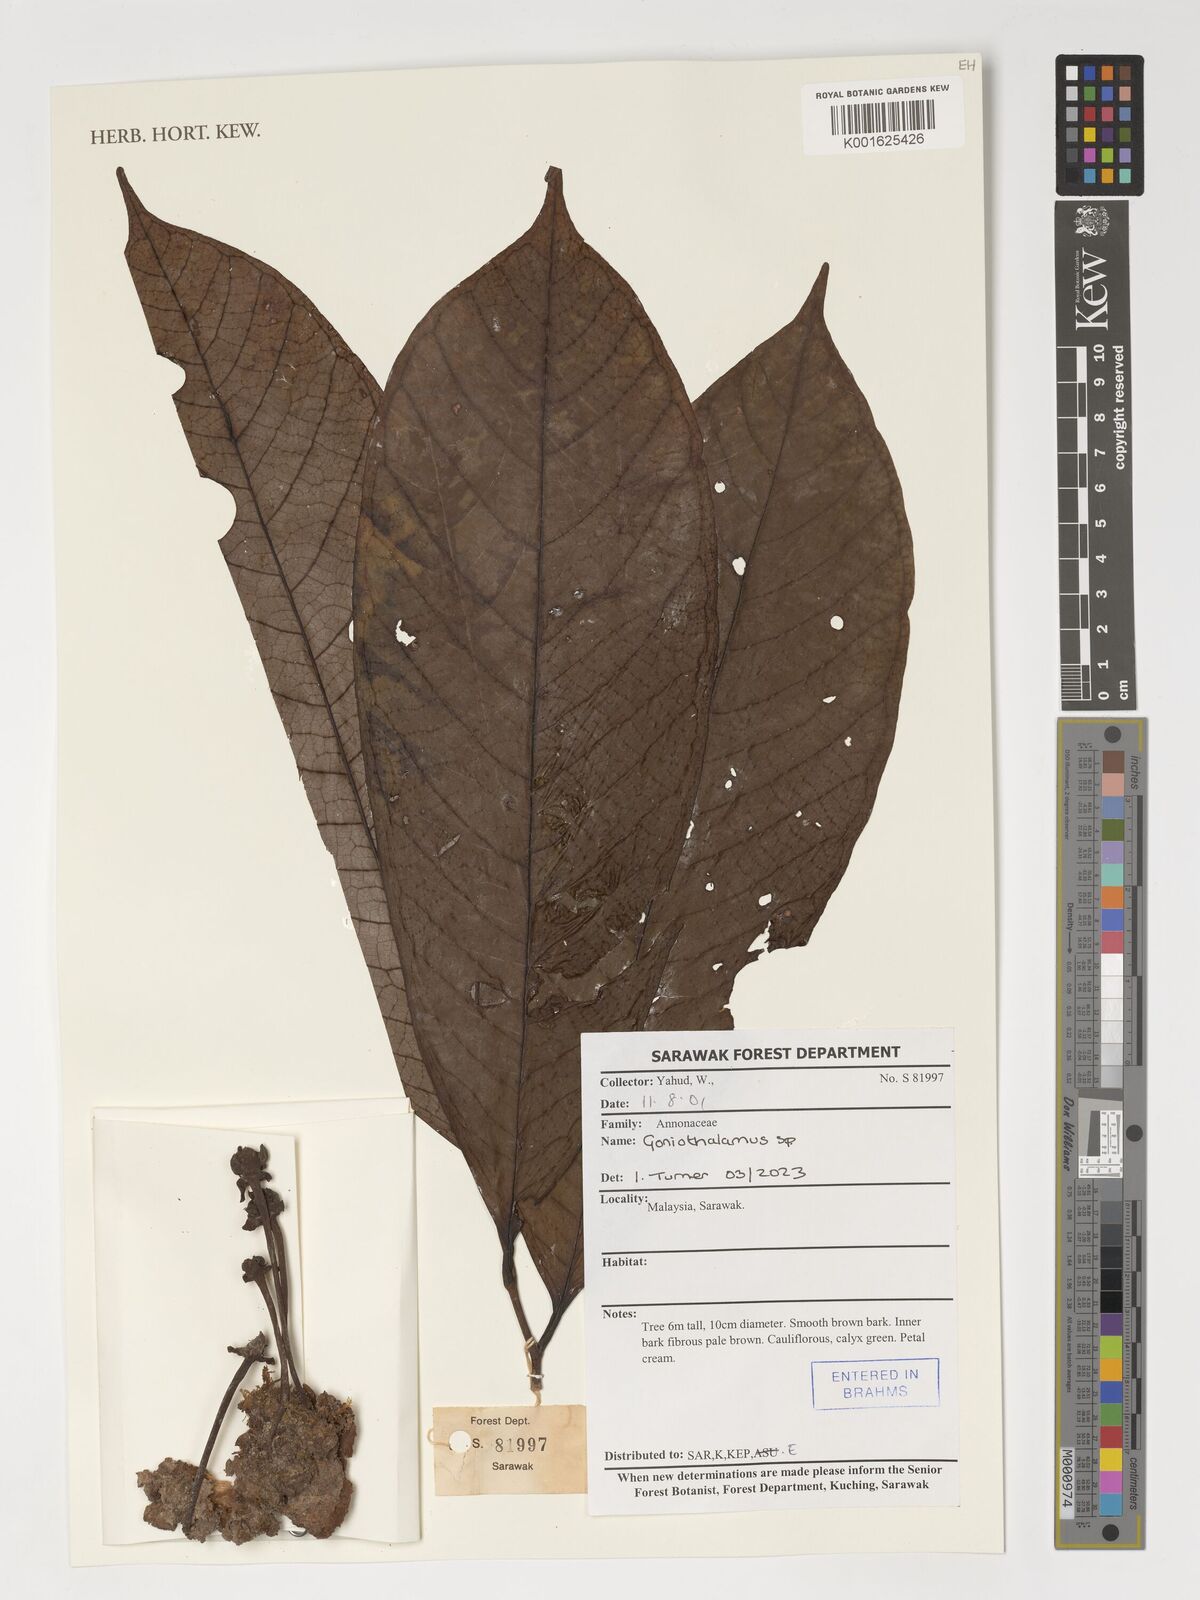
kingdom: Plantae
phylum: Tracheophyta
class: Magnoliopsida
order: Magnoliales
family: Annonaceae
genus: Goniothalamus
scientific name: Goniothalamus
